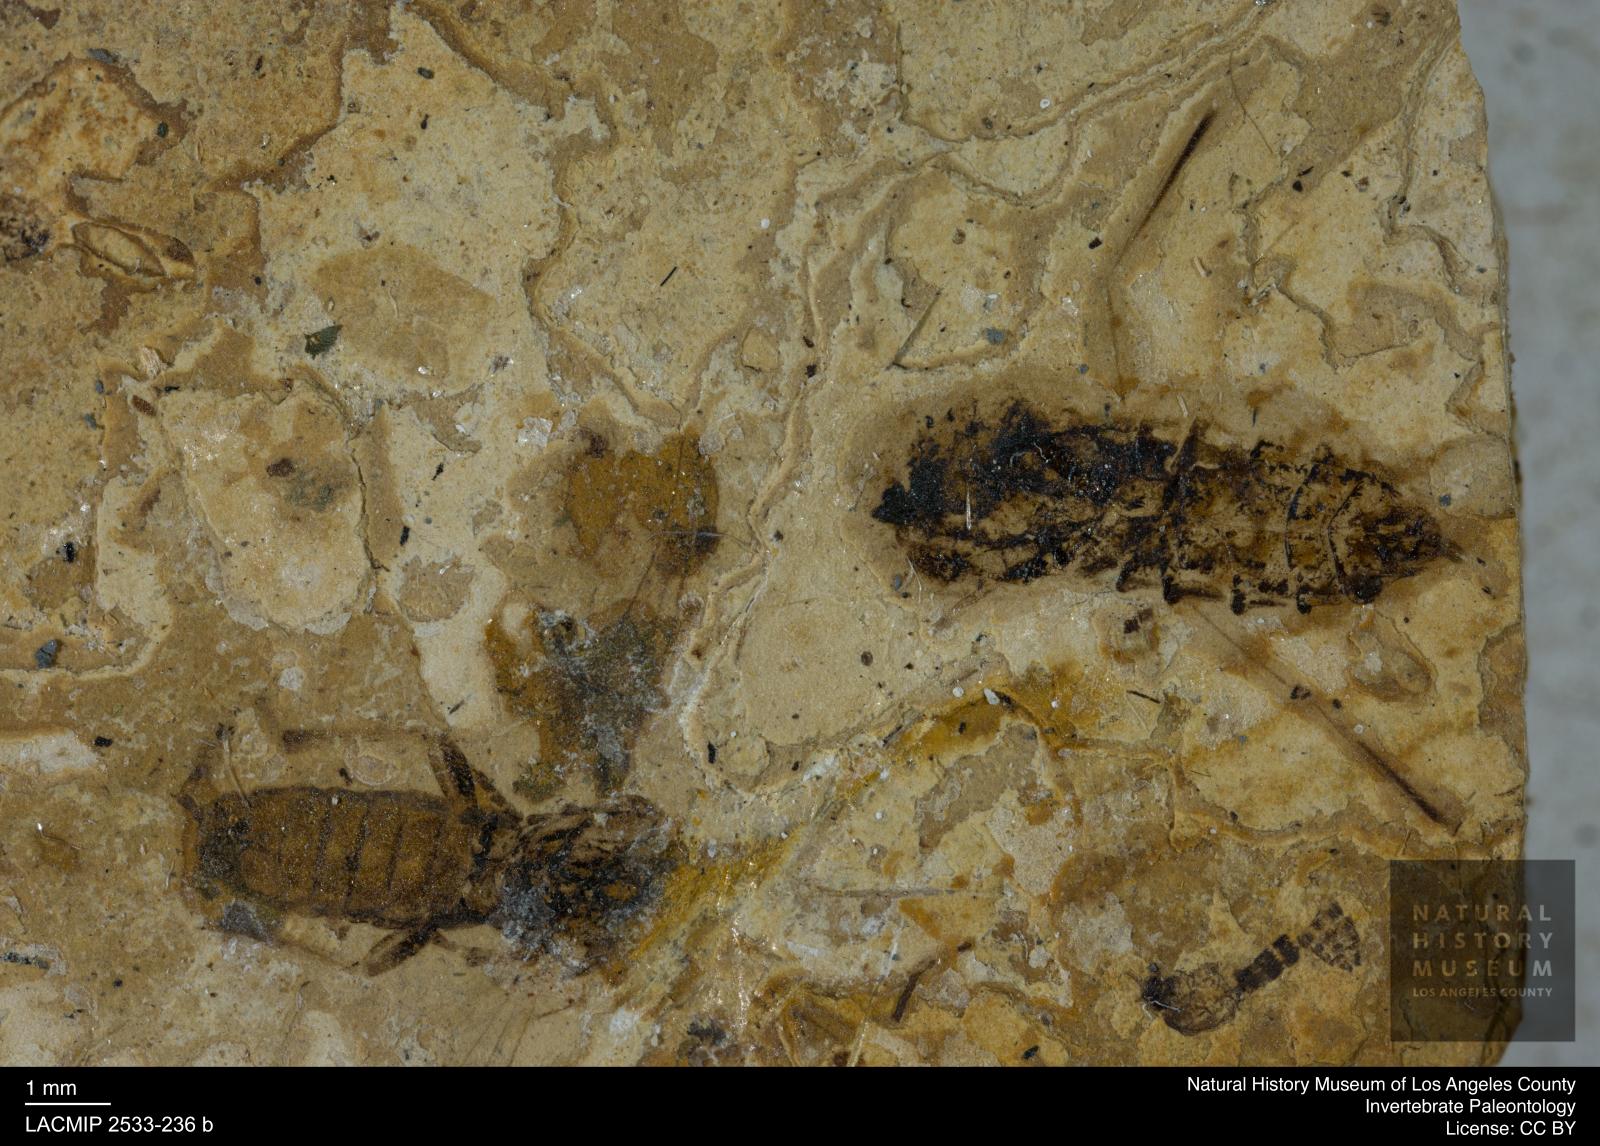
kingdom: Animalia
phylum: Arthropoda
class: Insecta
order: Diptera
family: Bibionidae
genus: Bibio
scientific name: Bibio compta
